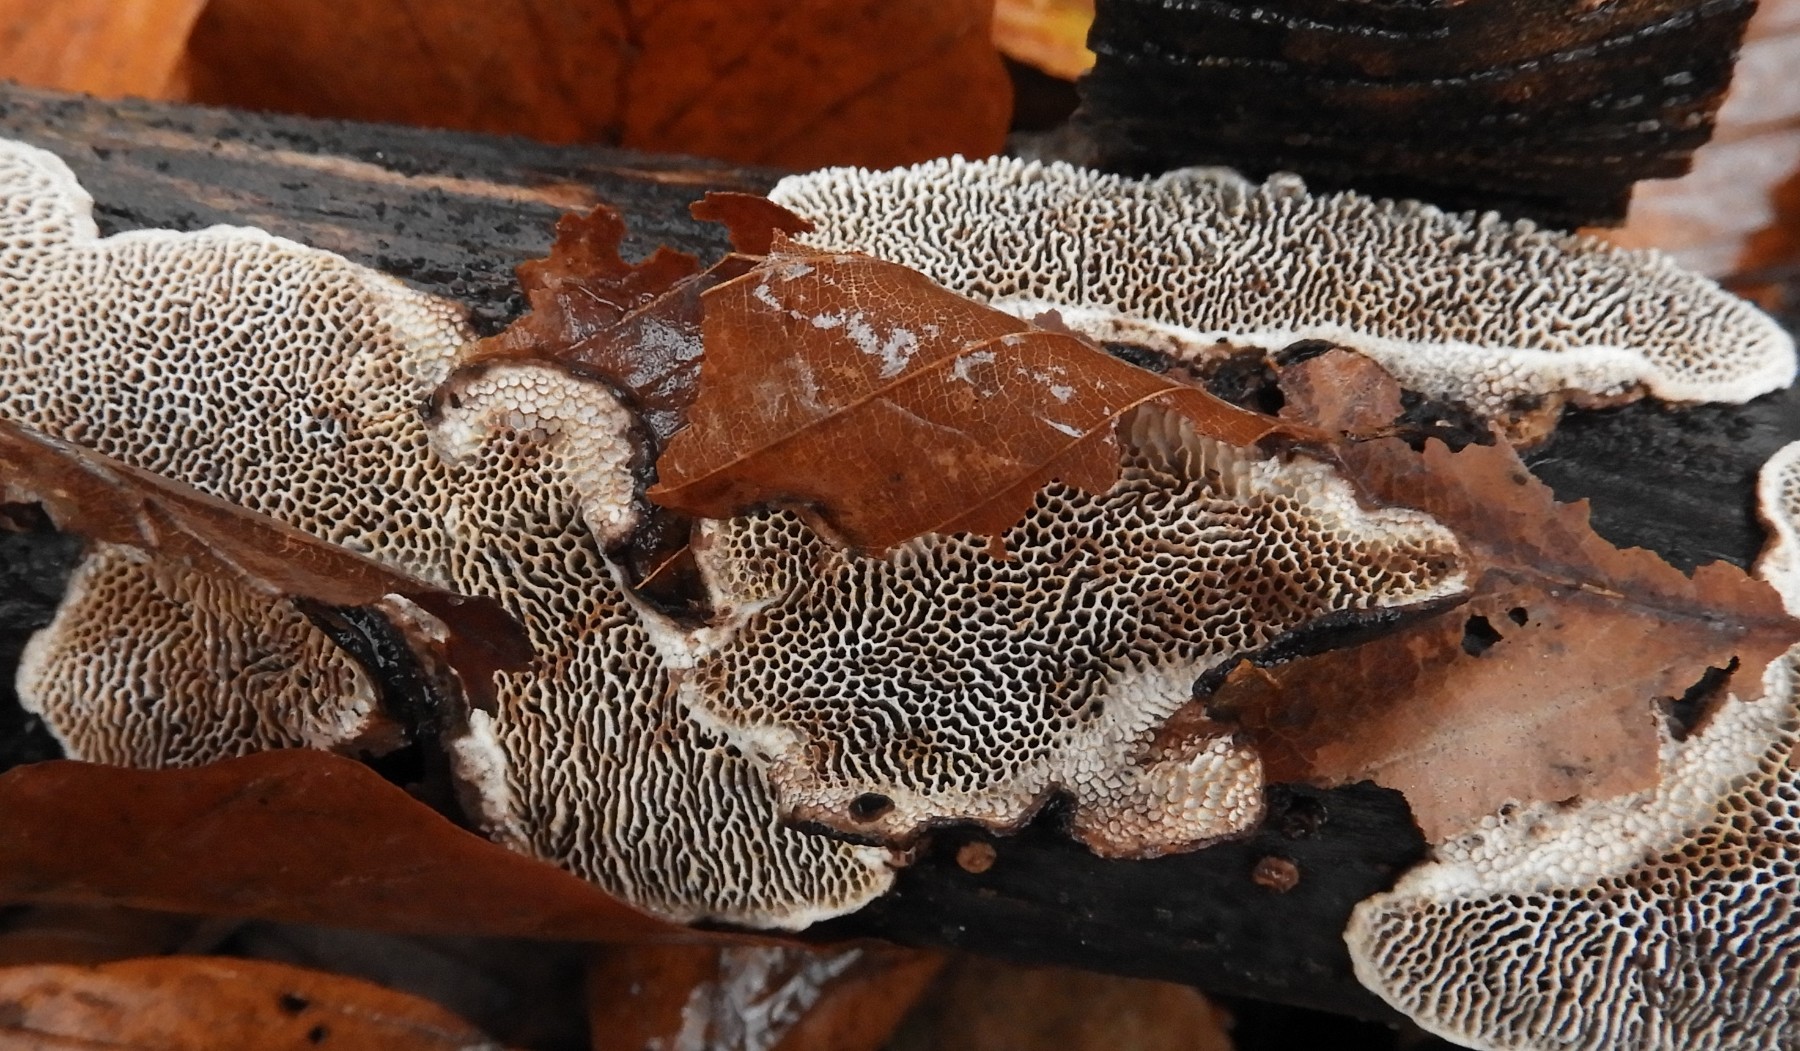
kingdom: Fungi
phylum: Basidiomycota
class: Agaricomycetes
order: Polyporales
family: Polyporaceae
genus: Podofomes
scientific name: Podofomes mollis
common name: blød begporesvamp
